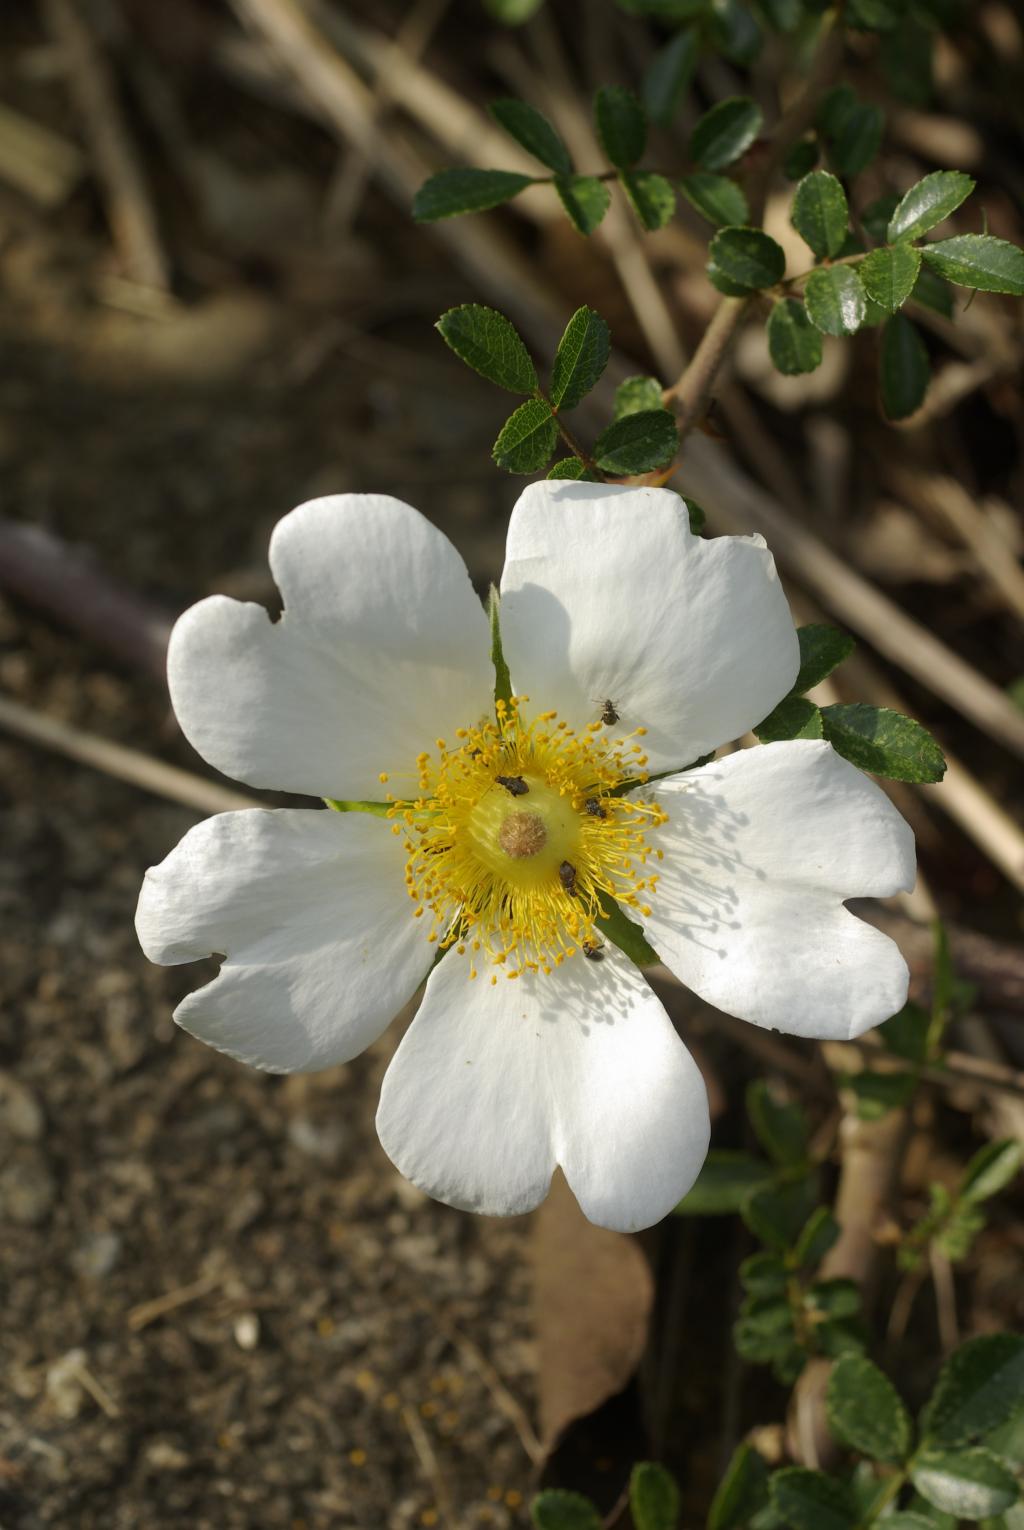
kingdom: Plantae
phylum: Tracheophyta
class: Magnoliopsida
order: Rosales
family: Rosaceae
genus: Rosa
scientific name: Rosa bracteata
